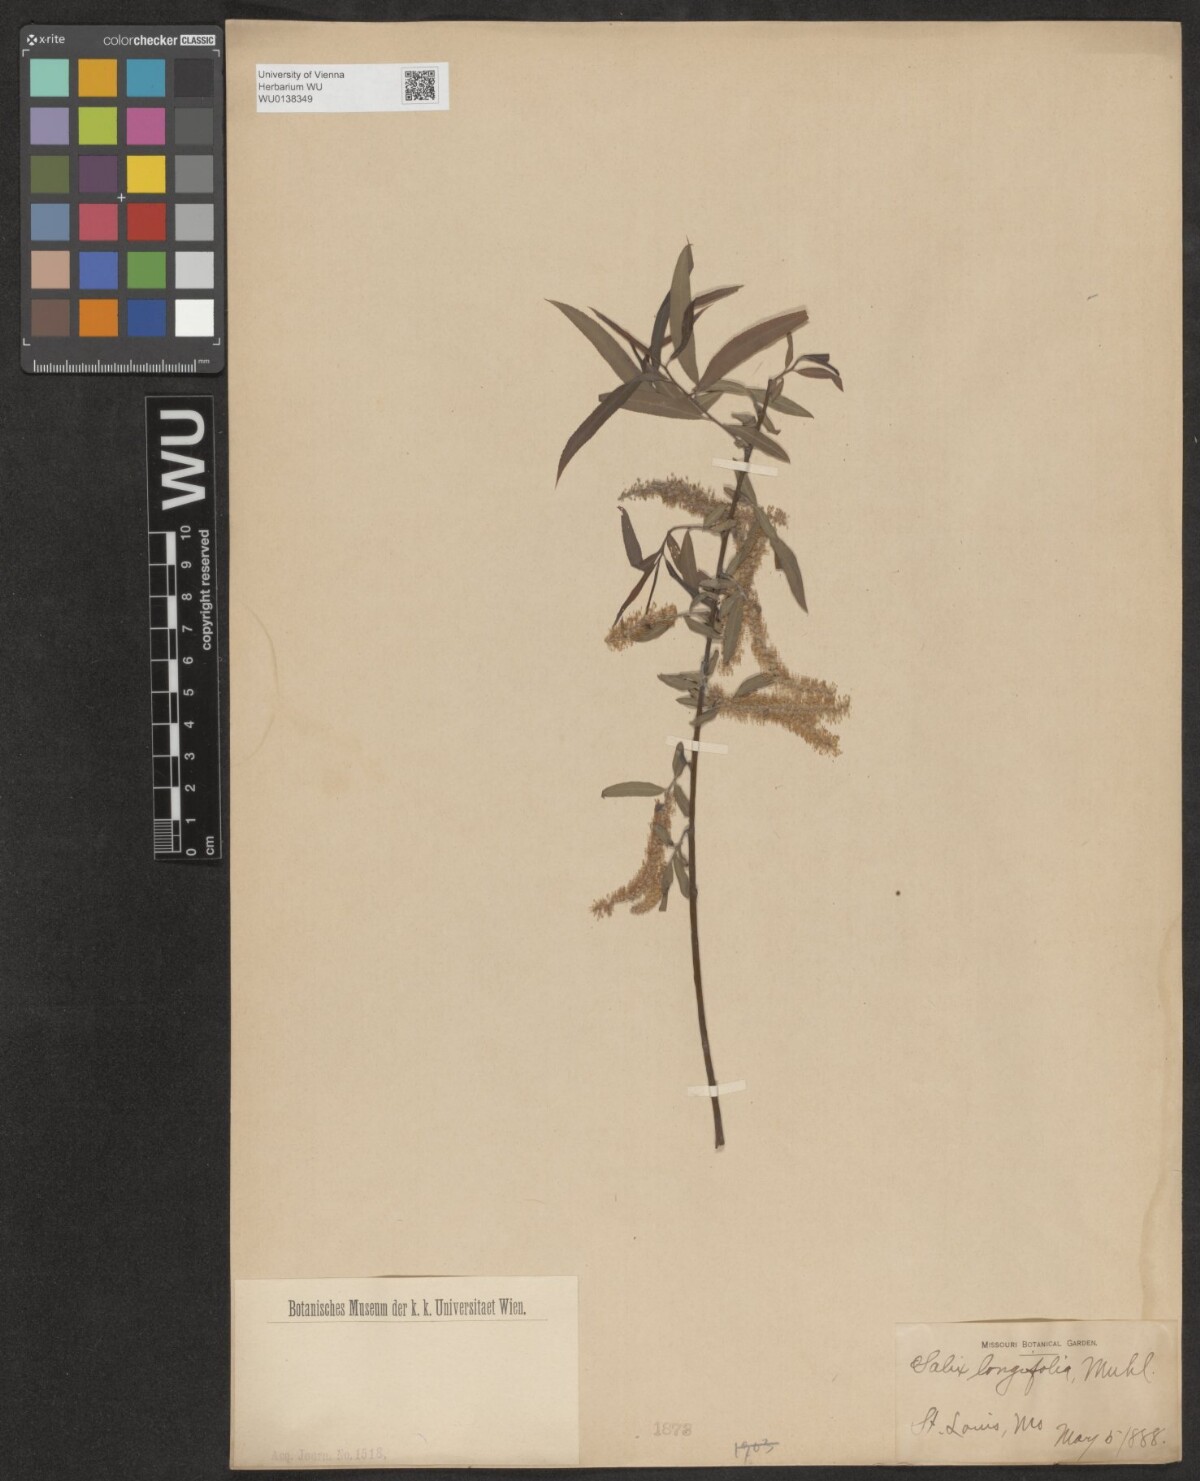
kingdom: Plantae
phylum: Tracheophyta
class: Magnoliopsida
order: Malpighiales
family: Salicaceae
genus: Salix
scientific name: Salix interior
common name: Sandbar willow
